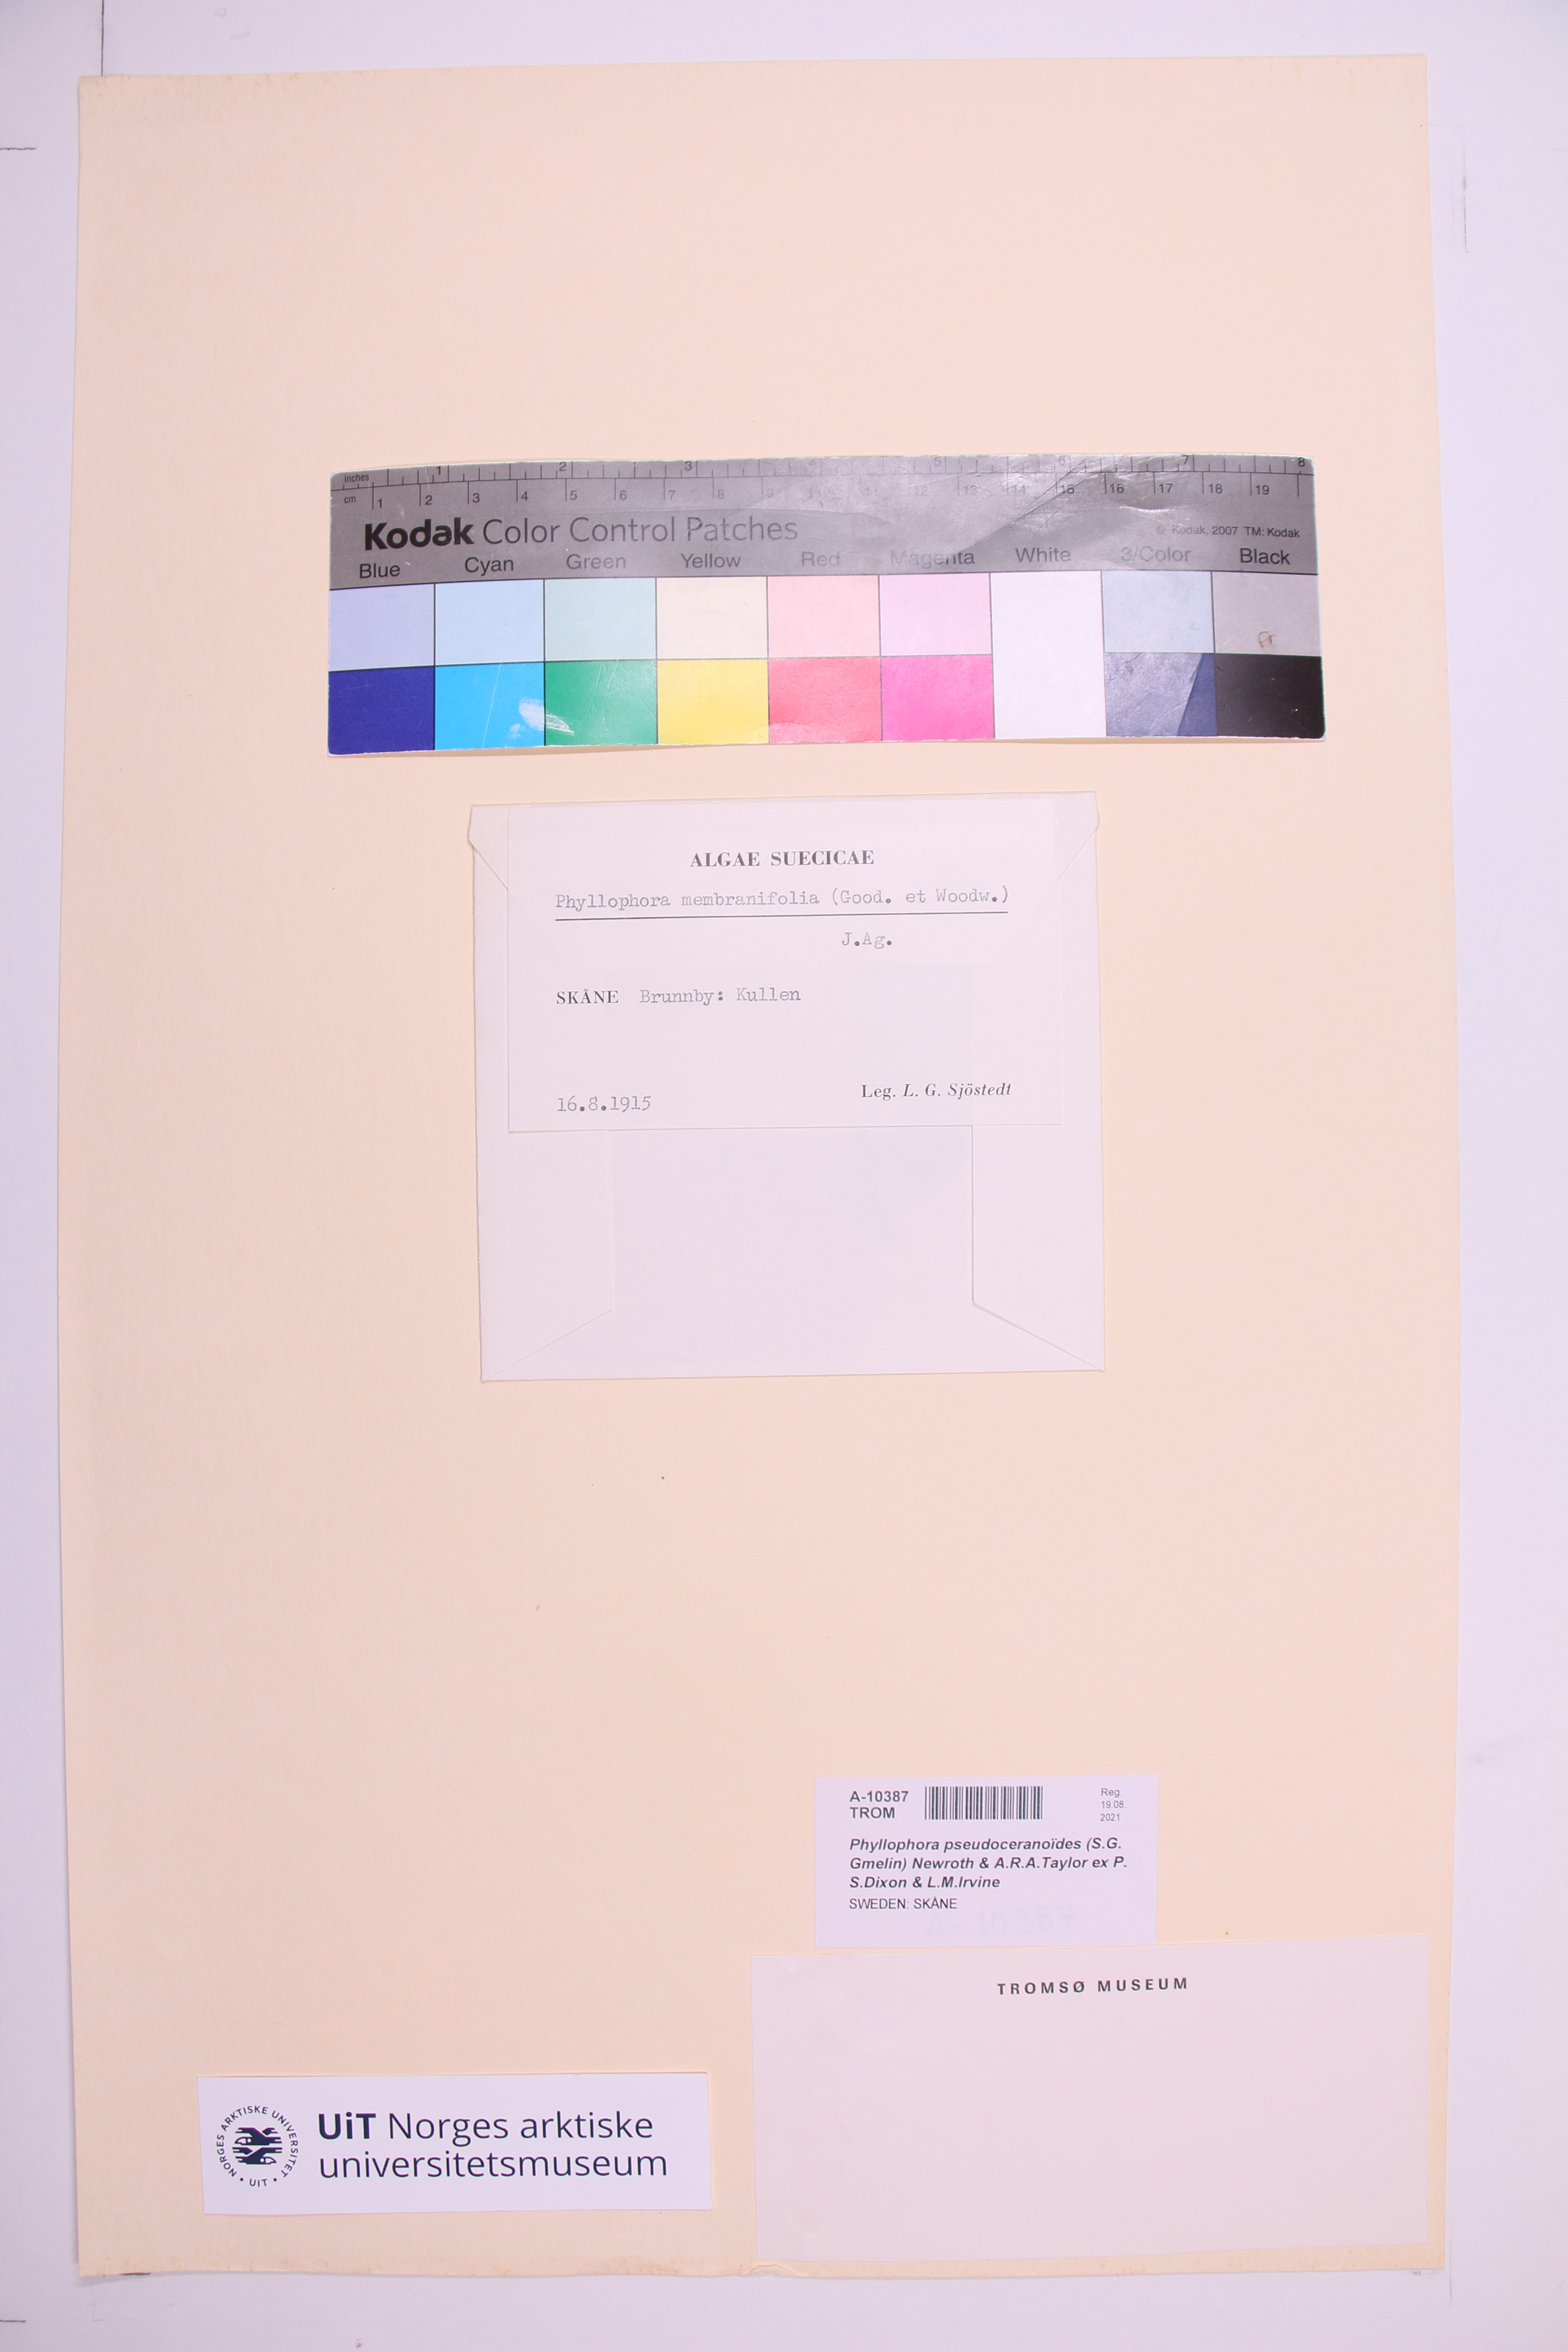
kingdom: Plantae
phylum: Rhodophyta
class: Florideophyceae
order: Gigartinales
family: Phyllophoraceae
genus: Phyllophora
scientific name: Phyllophora pseudoceranoides
